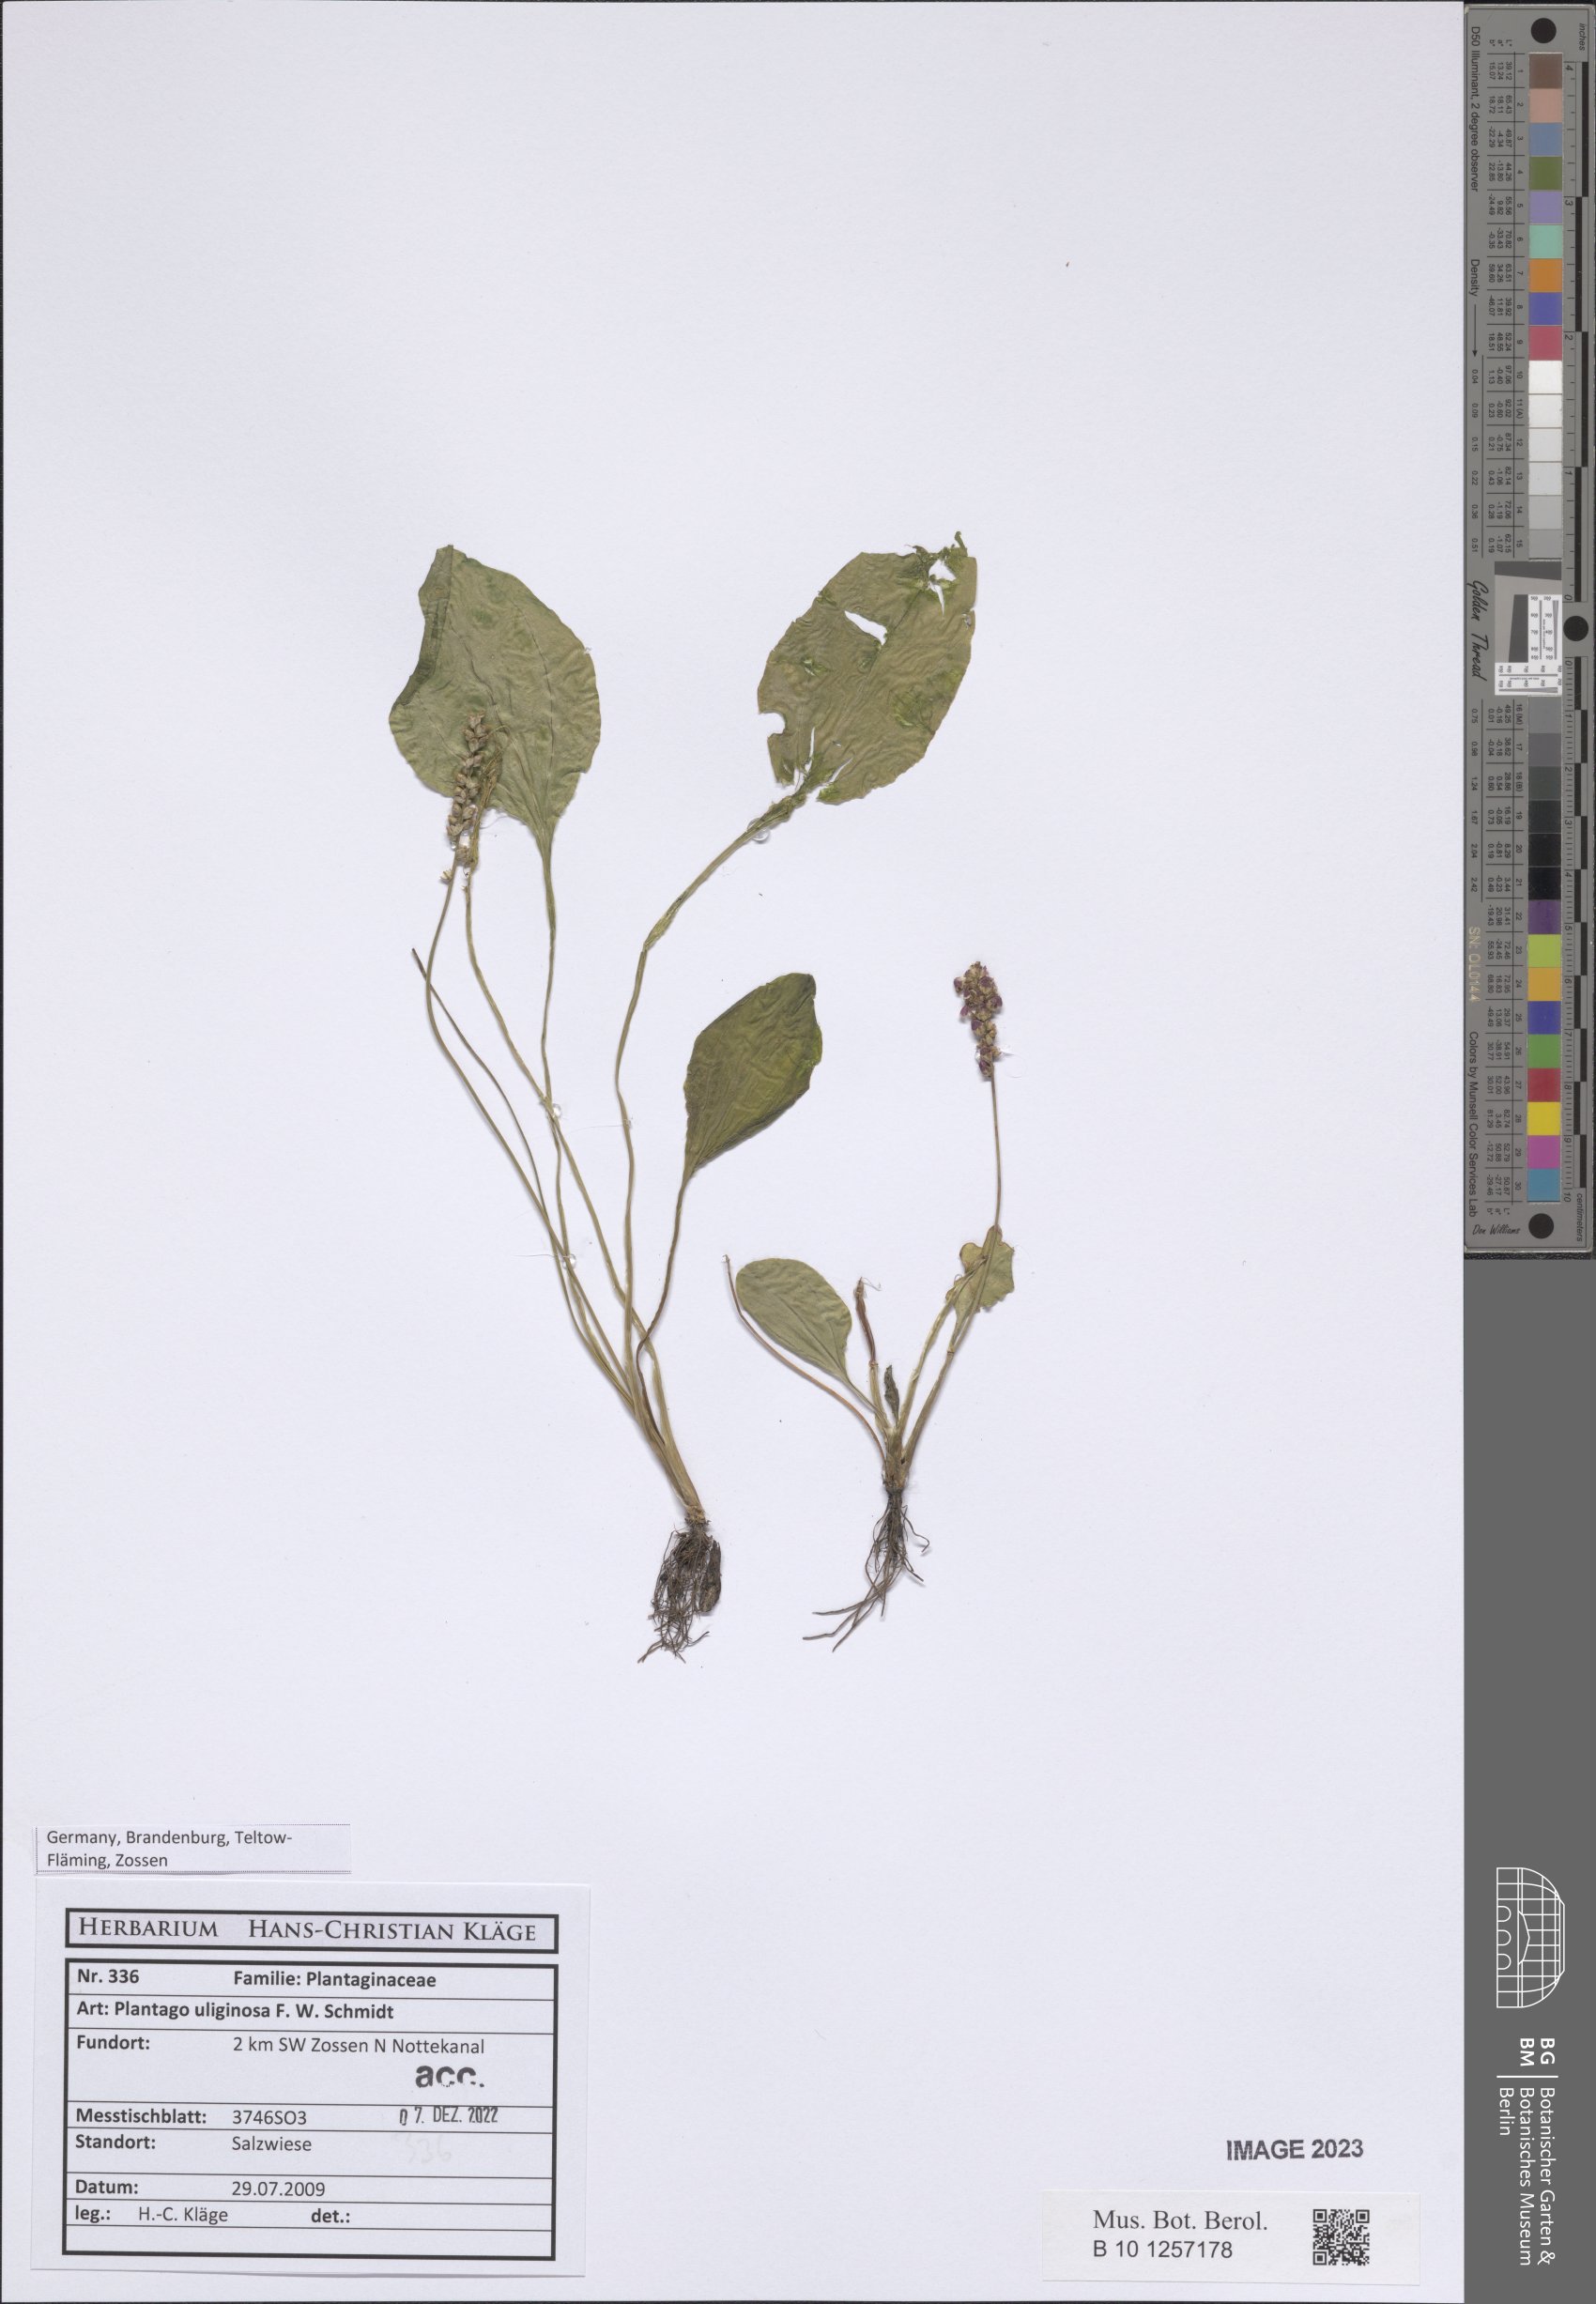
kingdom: Plantae
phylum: Tracheophyta
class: Magnoliopsida
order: Lamiales
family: Plantaginaceae
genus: Plantago
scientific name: Plantago uliginosa
